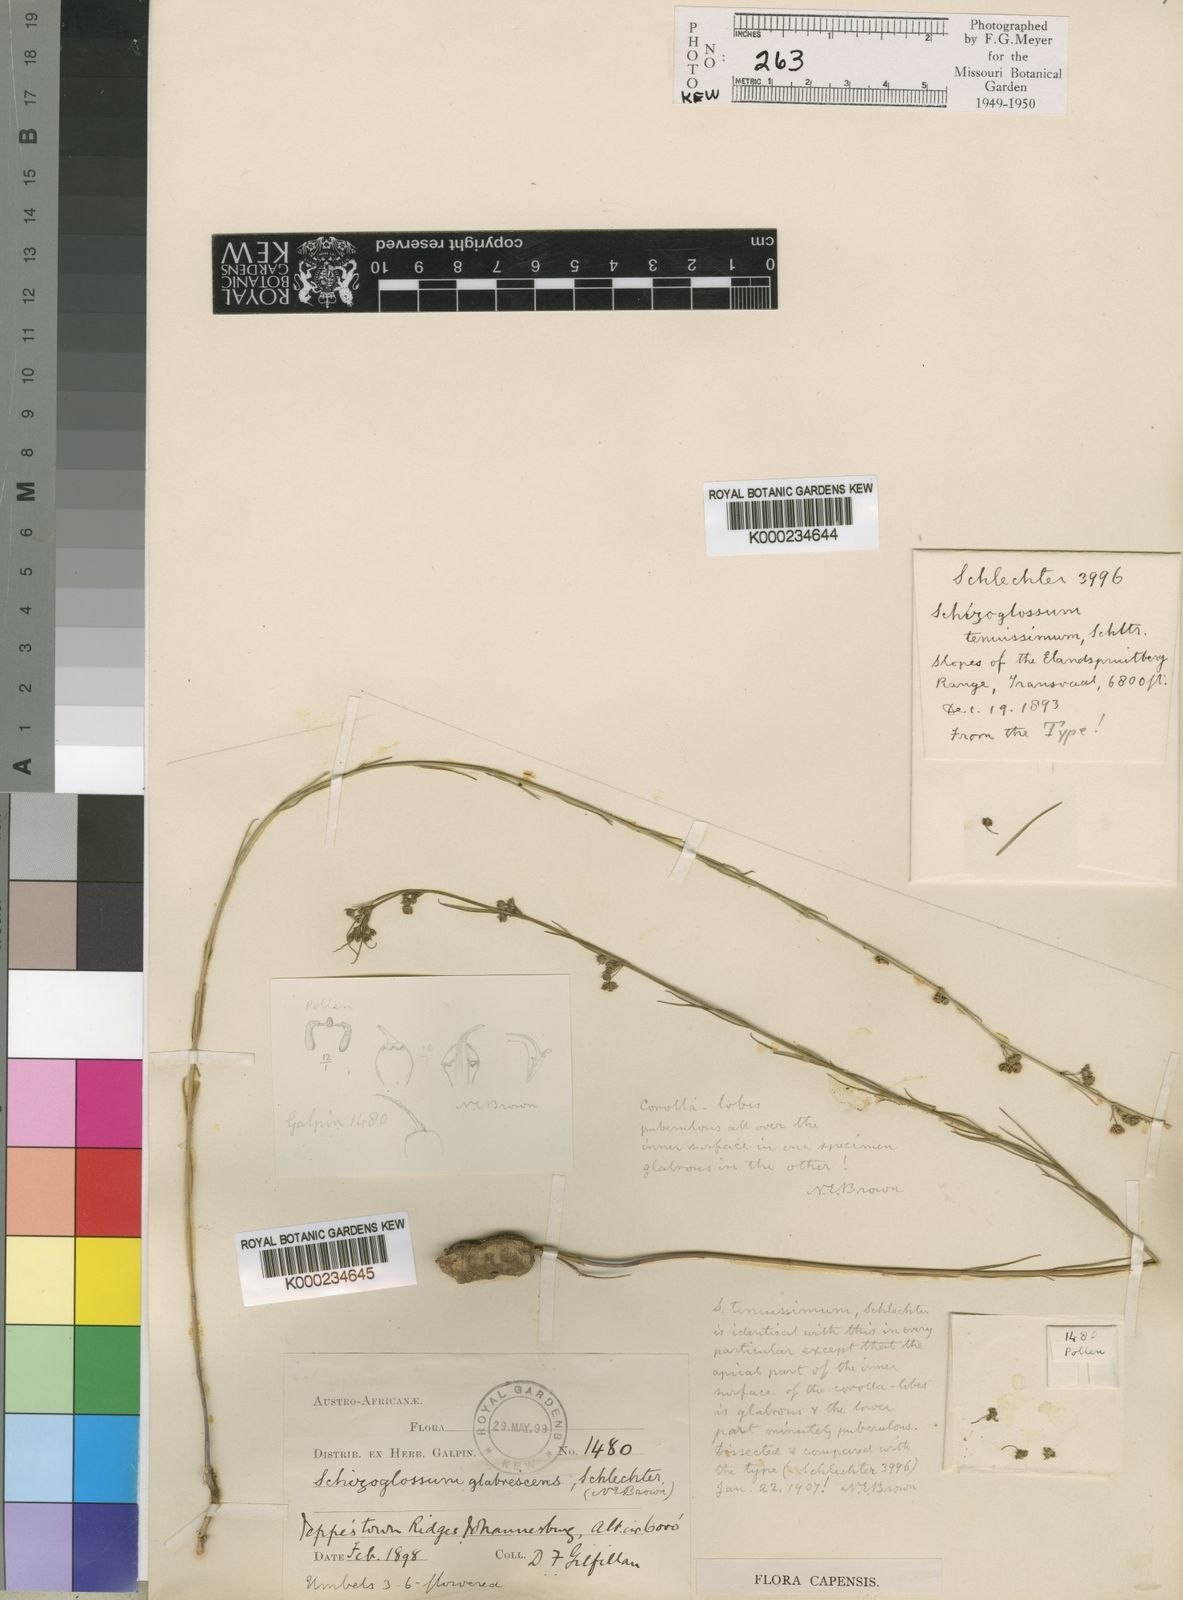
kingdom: Plantae
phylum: Tracheophyta
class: Magnoliopsida
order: Gentianales
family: Apocynaceae
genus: Aspidoglossum
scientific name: Aspidoglossum glabrescens
